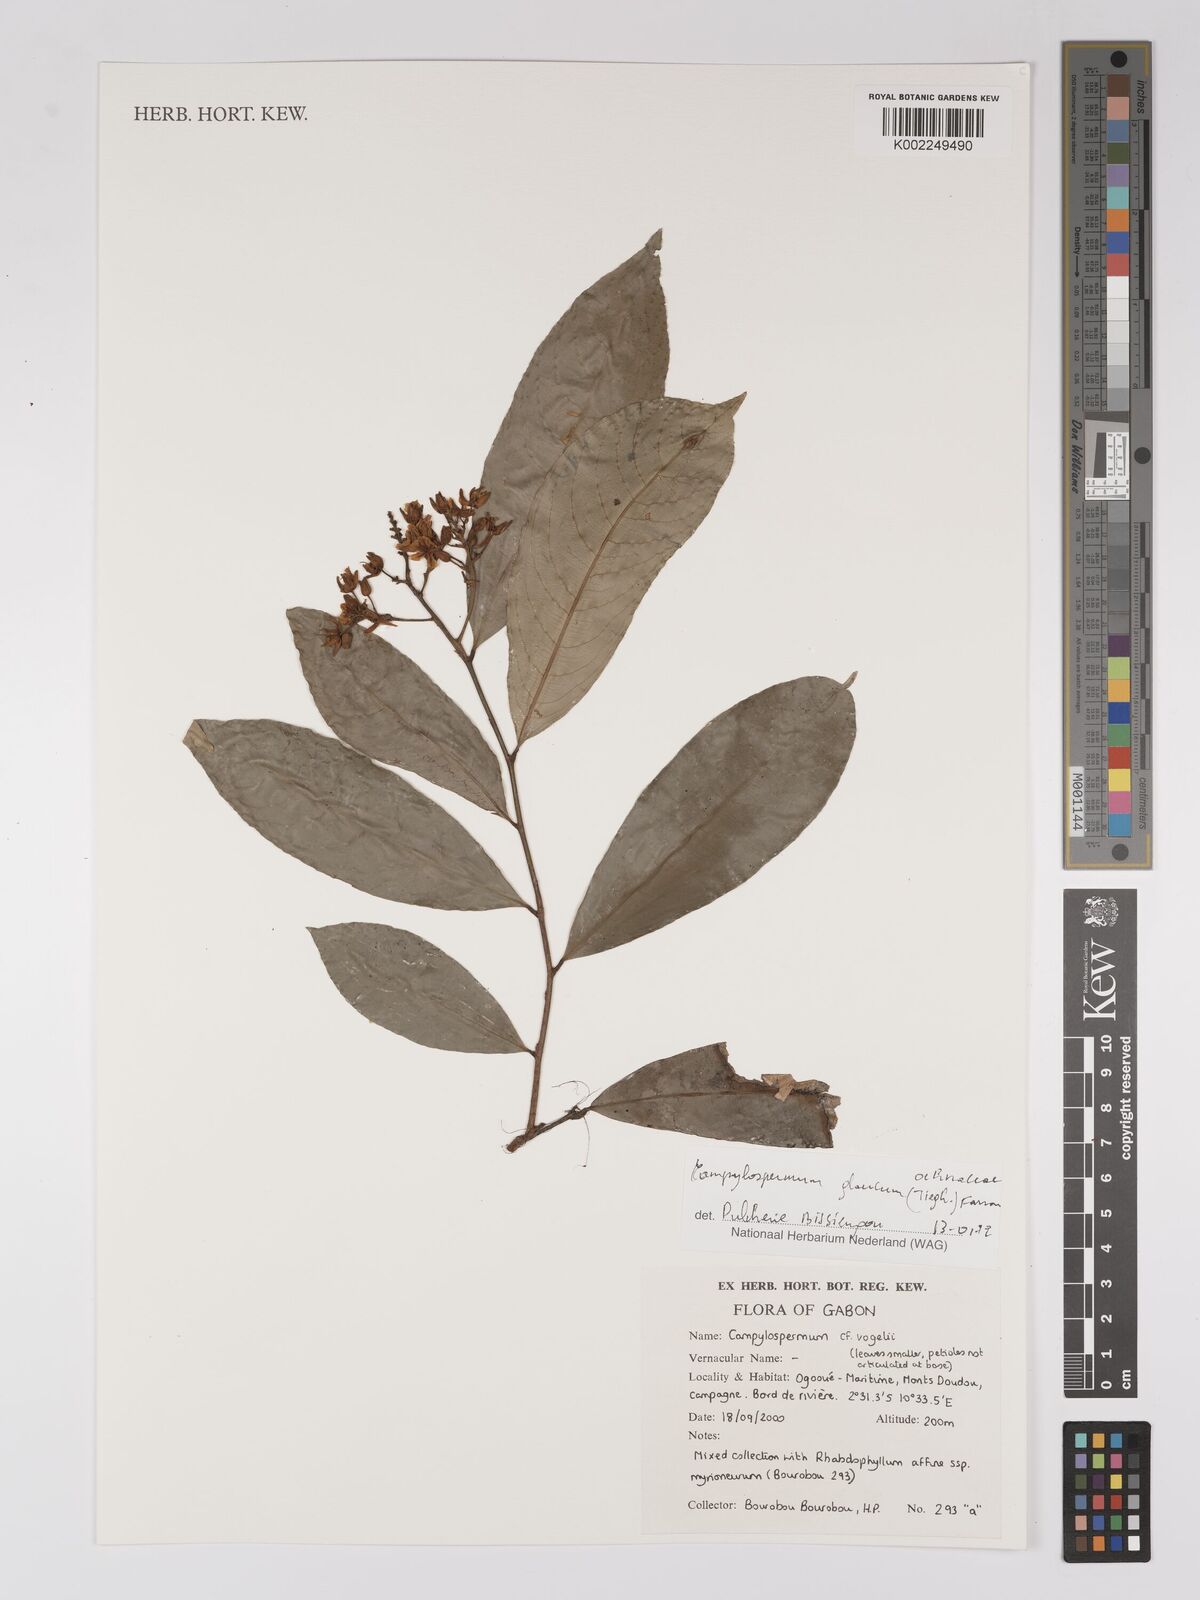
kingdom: Plantae
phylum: Tracheophyta
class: Magnoliopsida
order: Malpighiales
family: Ochnaceae
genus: Campylospermum
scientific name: Campylospermum glaucum
